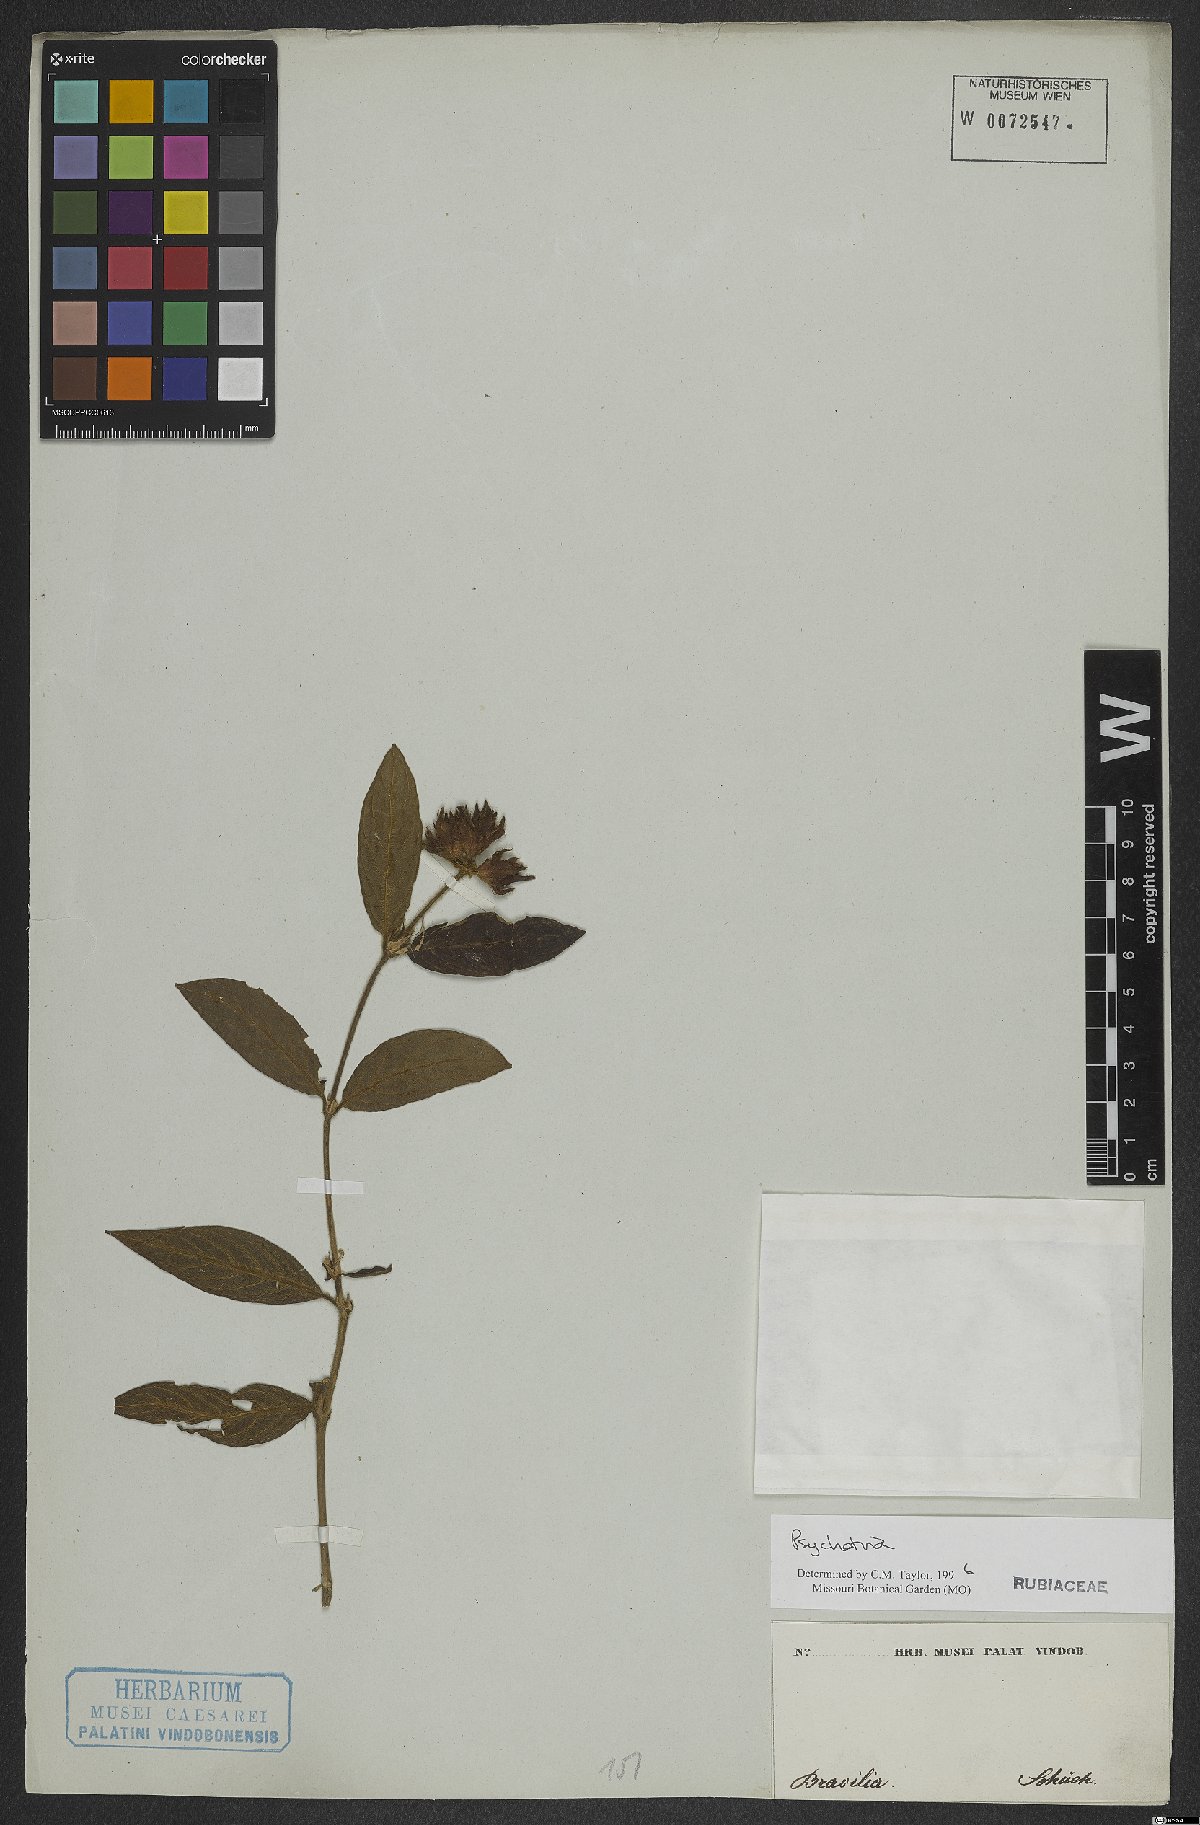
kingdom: Plantae
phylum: Tracheophyta
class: Magnoliopsida
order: Gentianales
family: Rubiaceae
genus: Psychotria
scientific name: Psychotria
